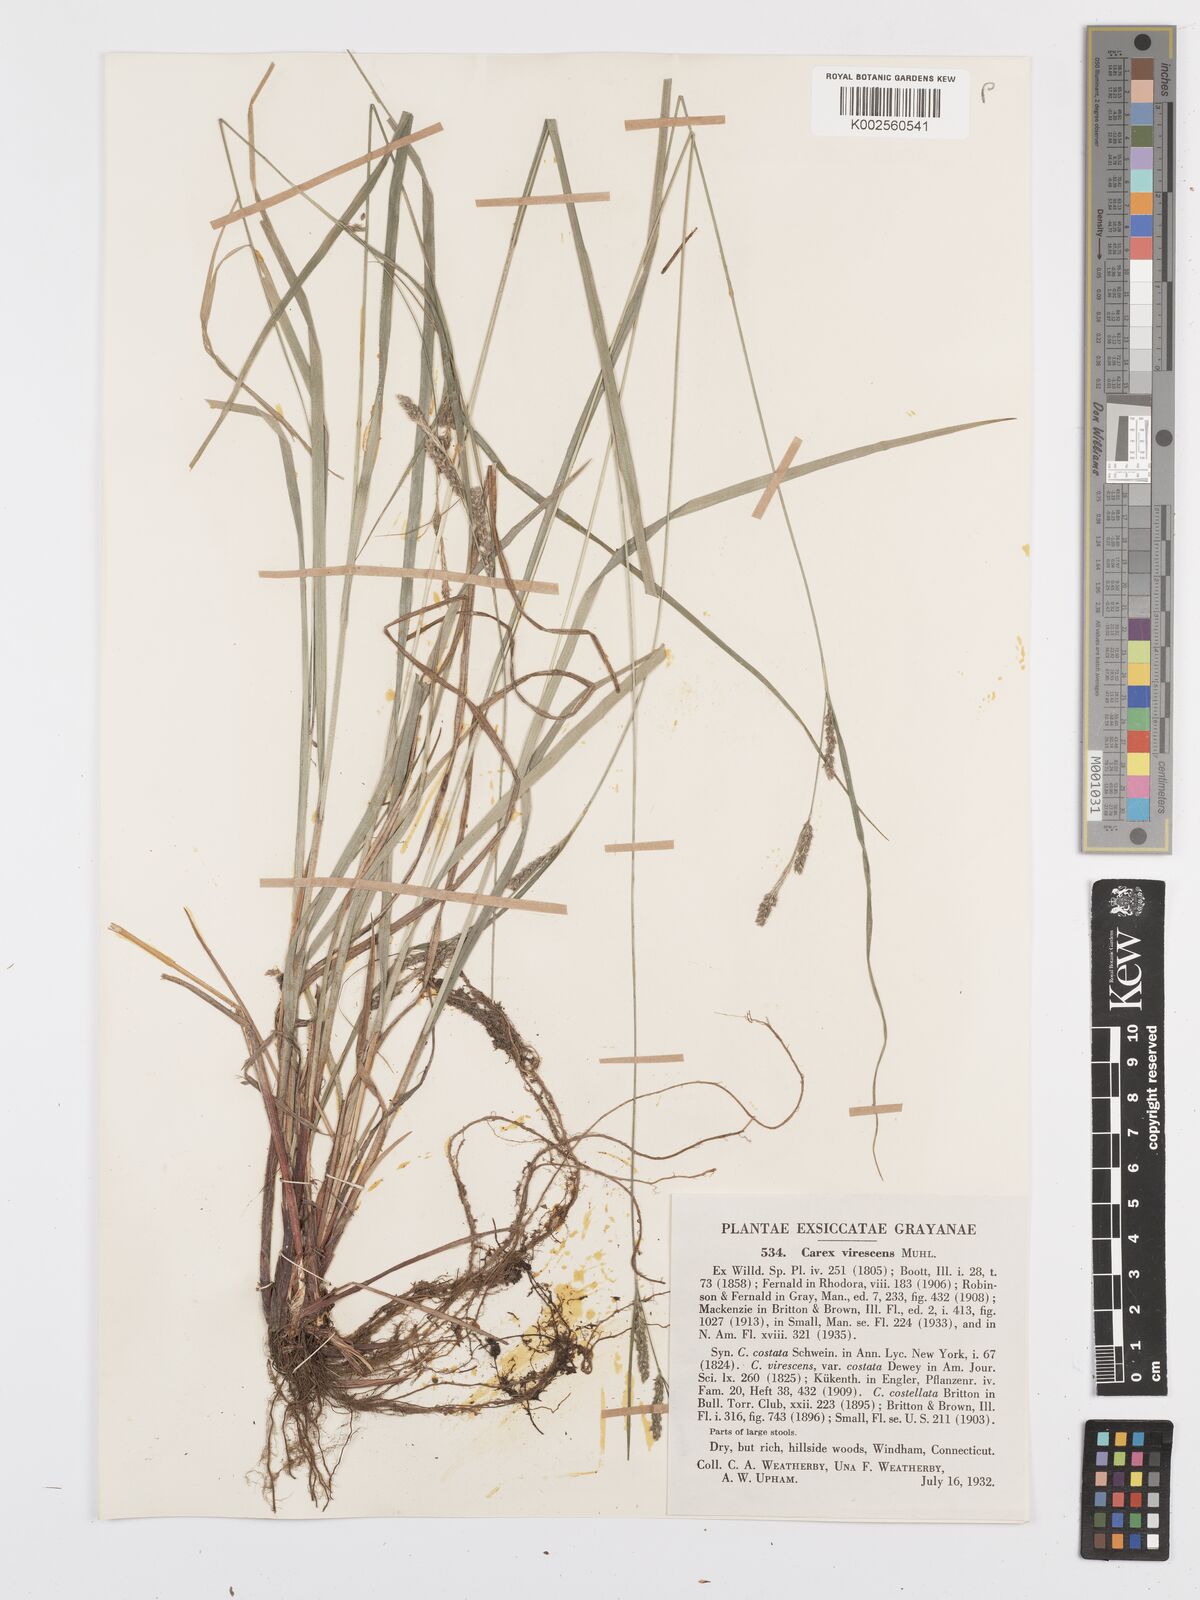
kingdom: Plantae
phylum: Tracheophyta
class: Liliopsida
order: Poales
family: Cyperaceae
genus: Carex
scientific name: Carex virescens
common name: Ribbed sedge
